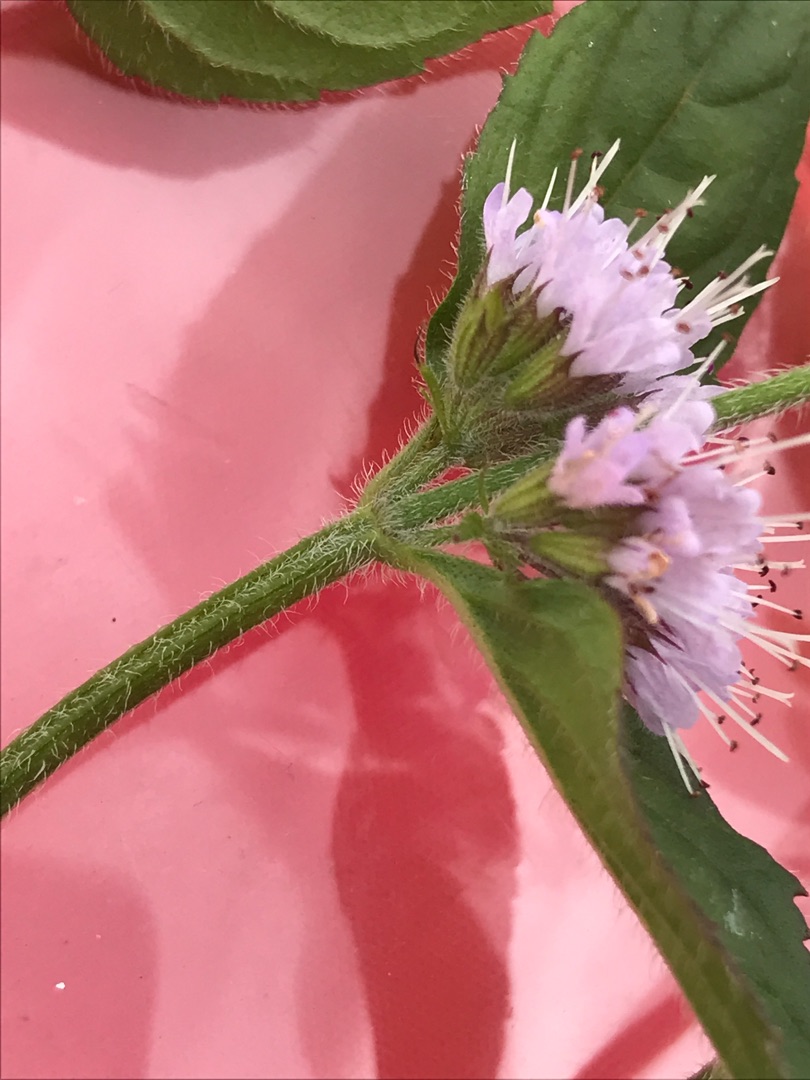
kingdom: Plantae
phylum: Tracheophyta
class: Magnoliopsida
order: Lamiales
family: Lamiaceae
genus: Mentha
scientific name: Mentha aquatica
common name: Vand-mynte
